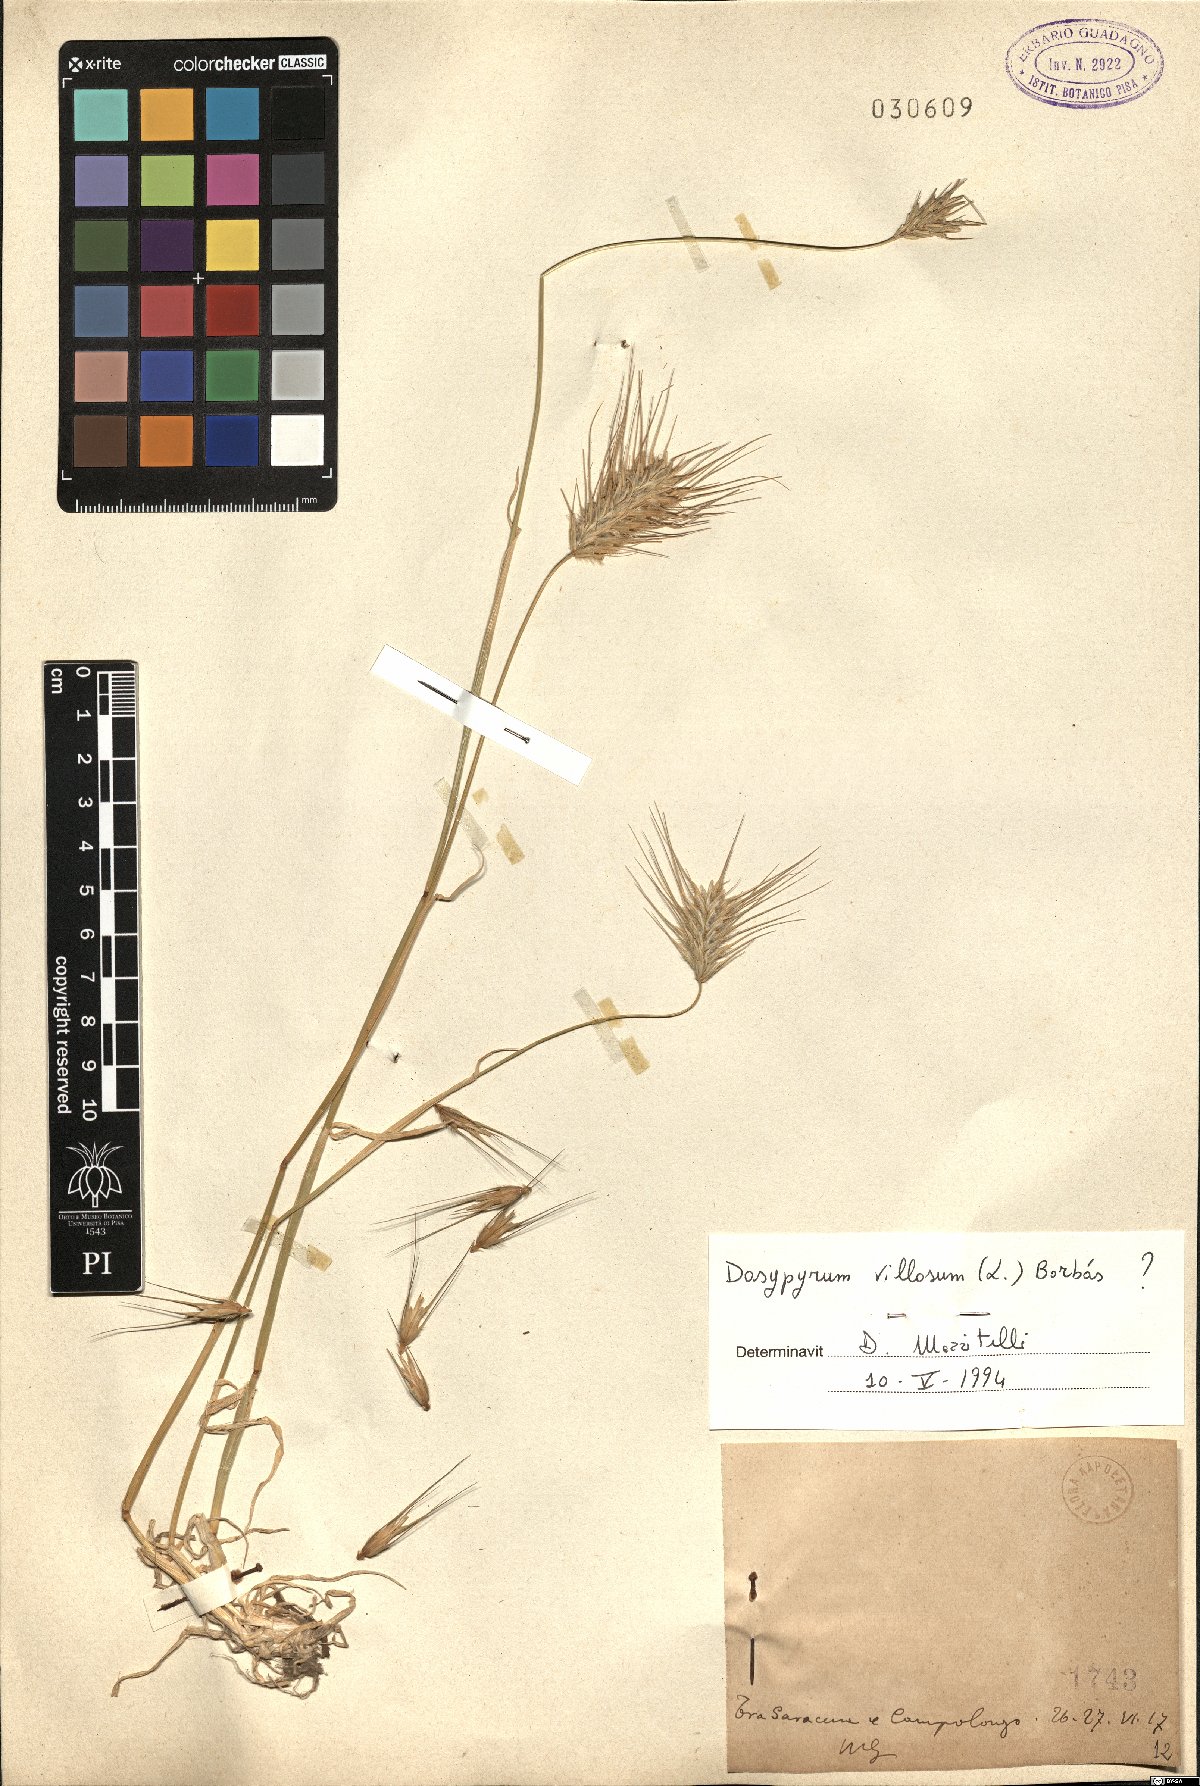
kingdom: Plantae
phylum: Tracheophyta
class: Liliopsida
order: Poales
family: Poaceae
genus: Dasypyrum
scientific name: Dasypyrum villosum
